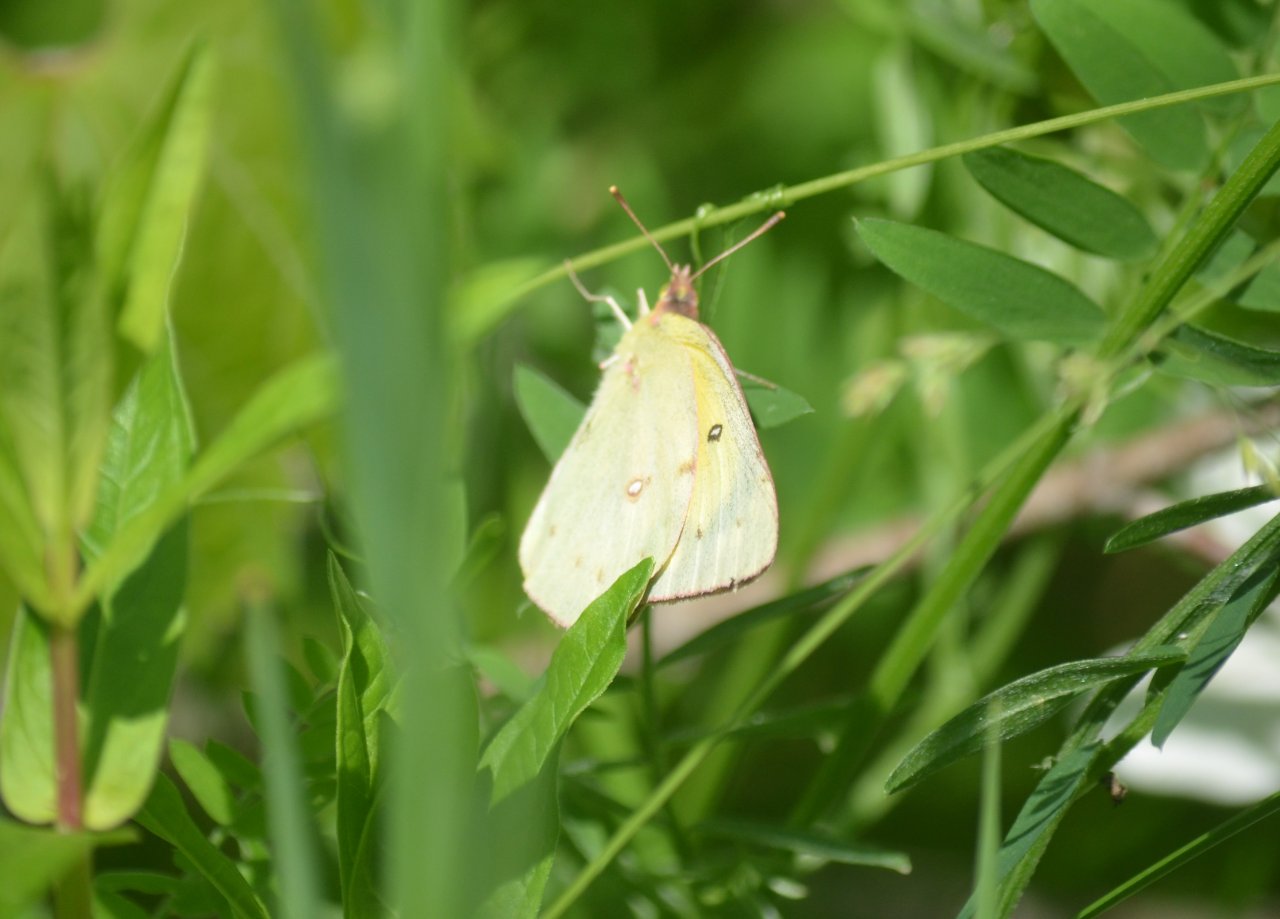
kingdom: Animalia
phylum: Arthropoda
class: Insecta
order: Lepidoptera
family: Pieridae
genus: Colias
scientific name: Colias eurytheme
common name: Orange Sulphur
